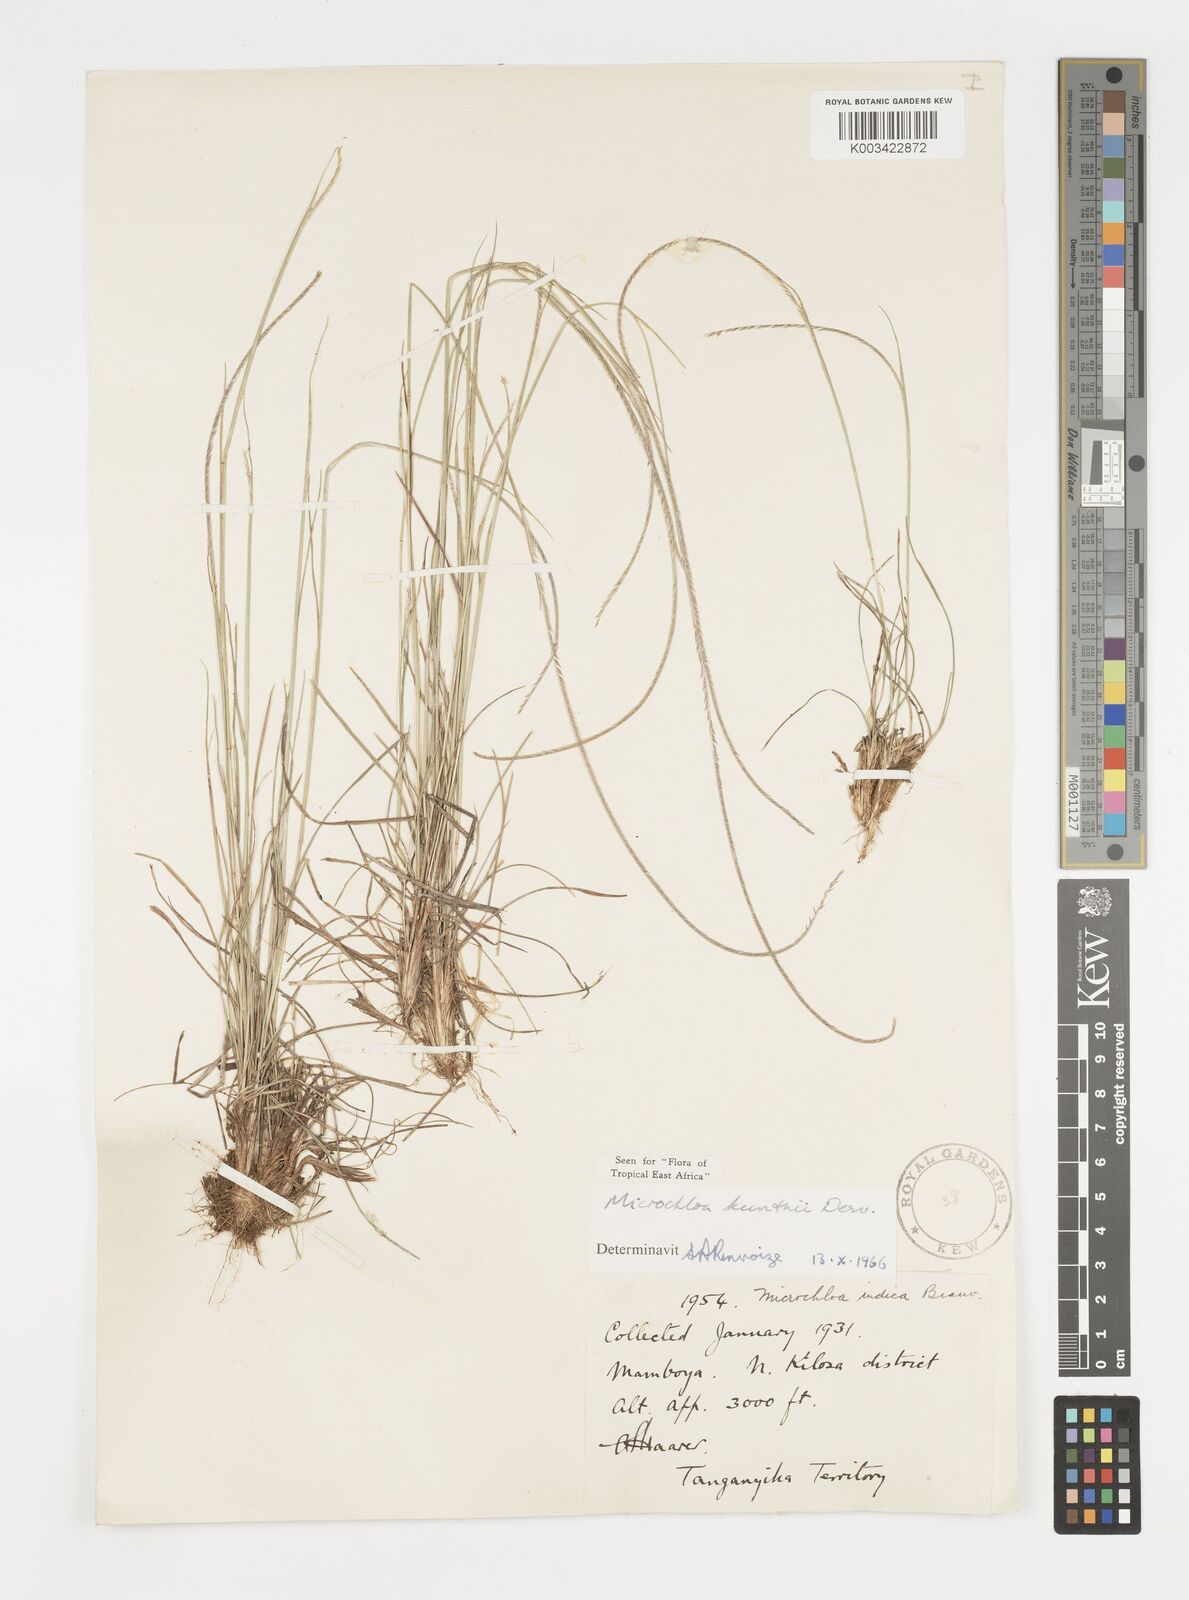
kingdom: Plantae
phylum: Tracheophyta
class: Liliopsida
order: Poales
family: Poaceae
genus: Microchloa
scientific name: Microchloa kunthii
